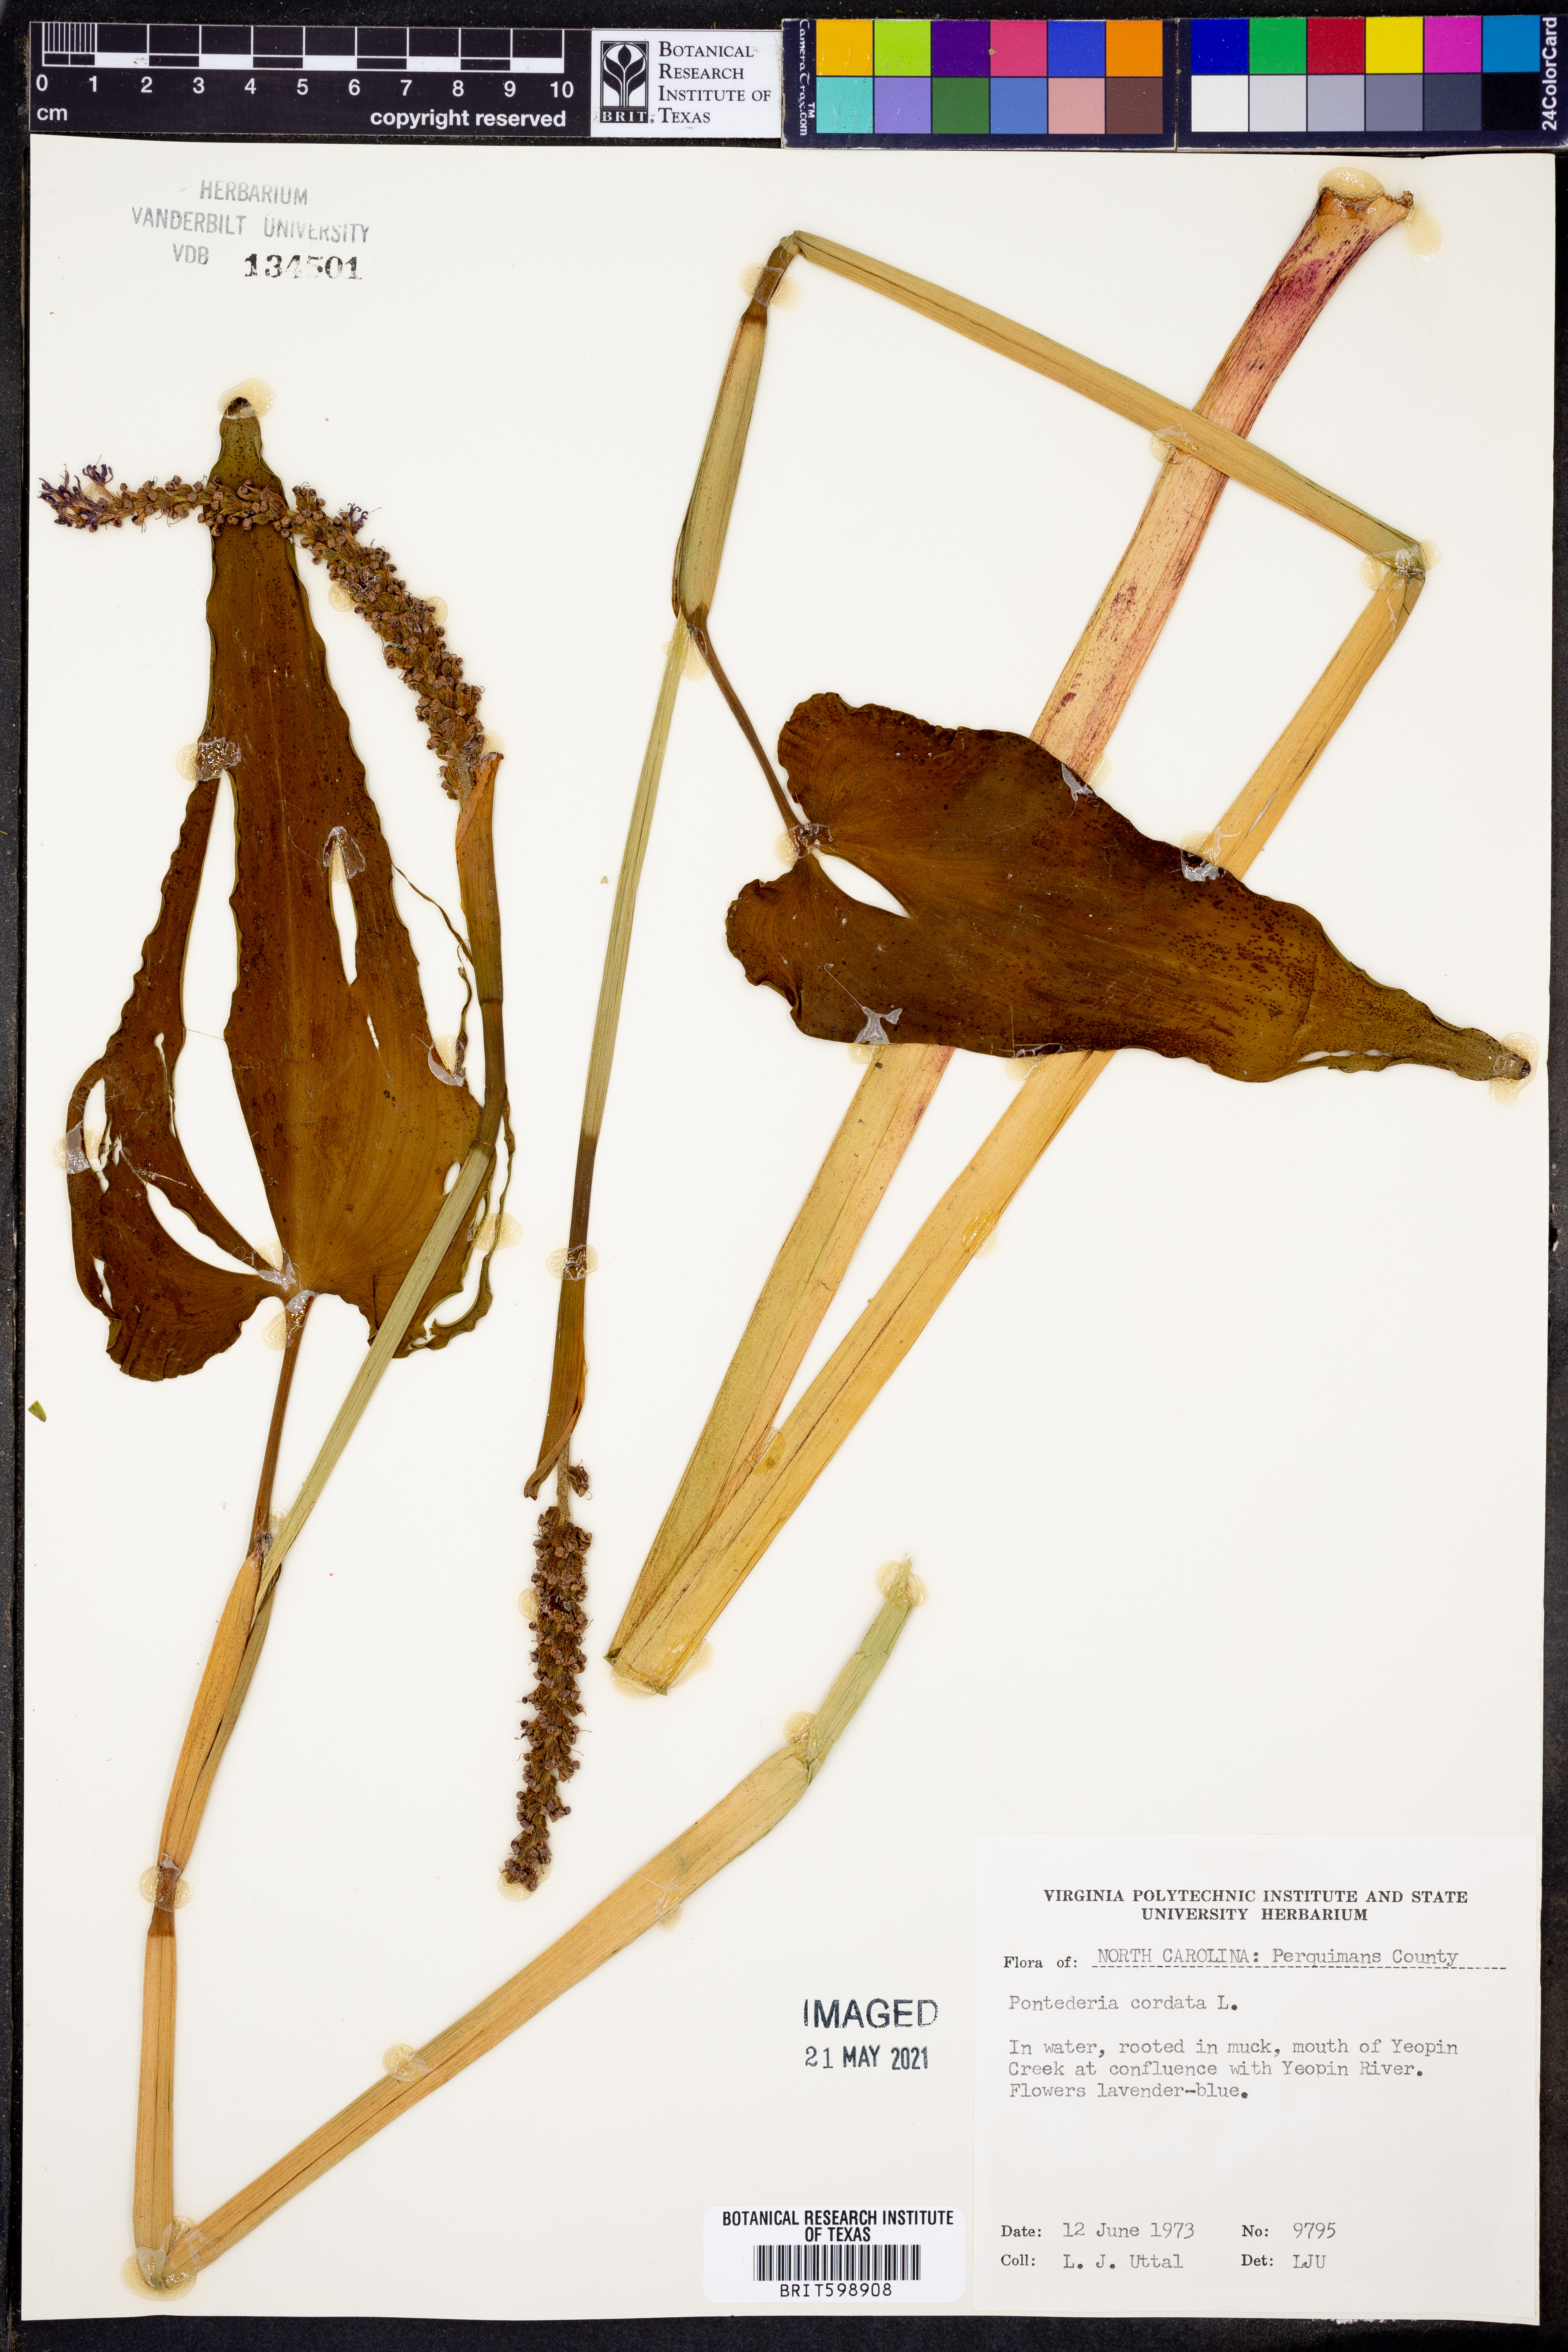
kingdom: Plantae
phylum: Tracheophyta
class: Liliopsida
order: Commelinales
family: Pontederiaceae
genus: Pontederia
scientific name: Pontederia cordata
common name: Pickerelweed
